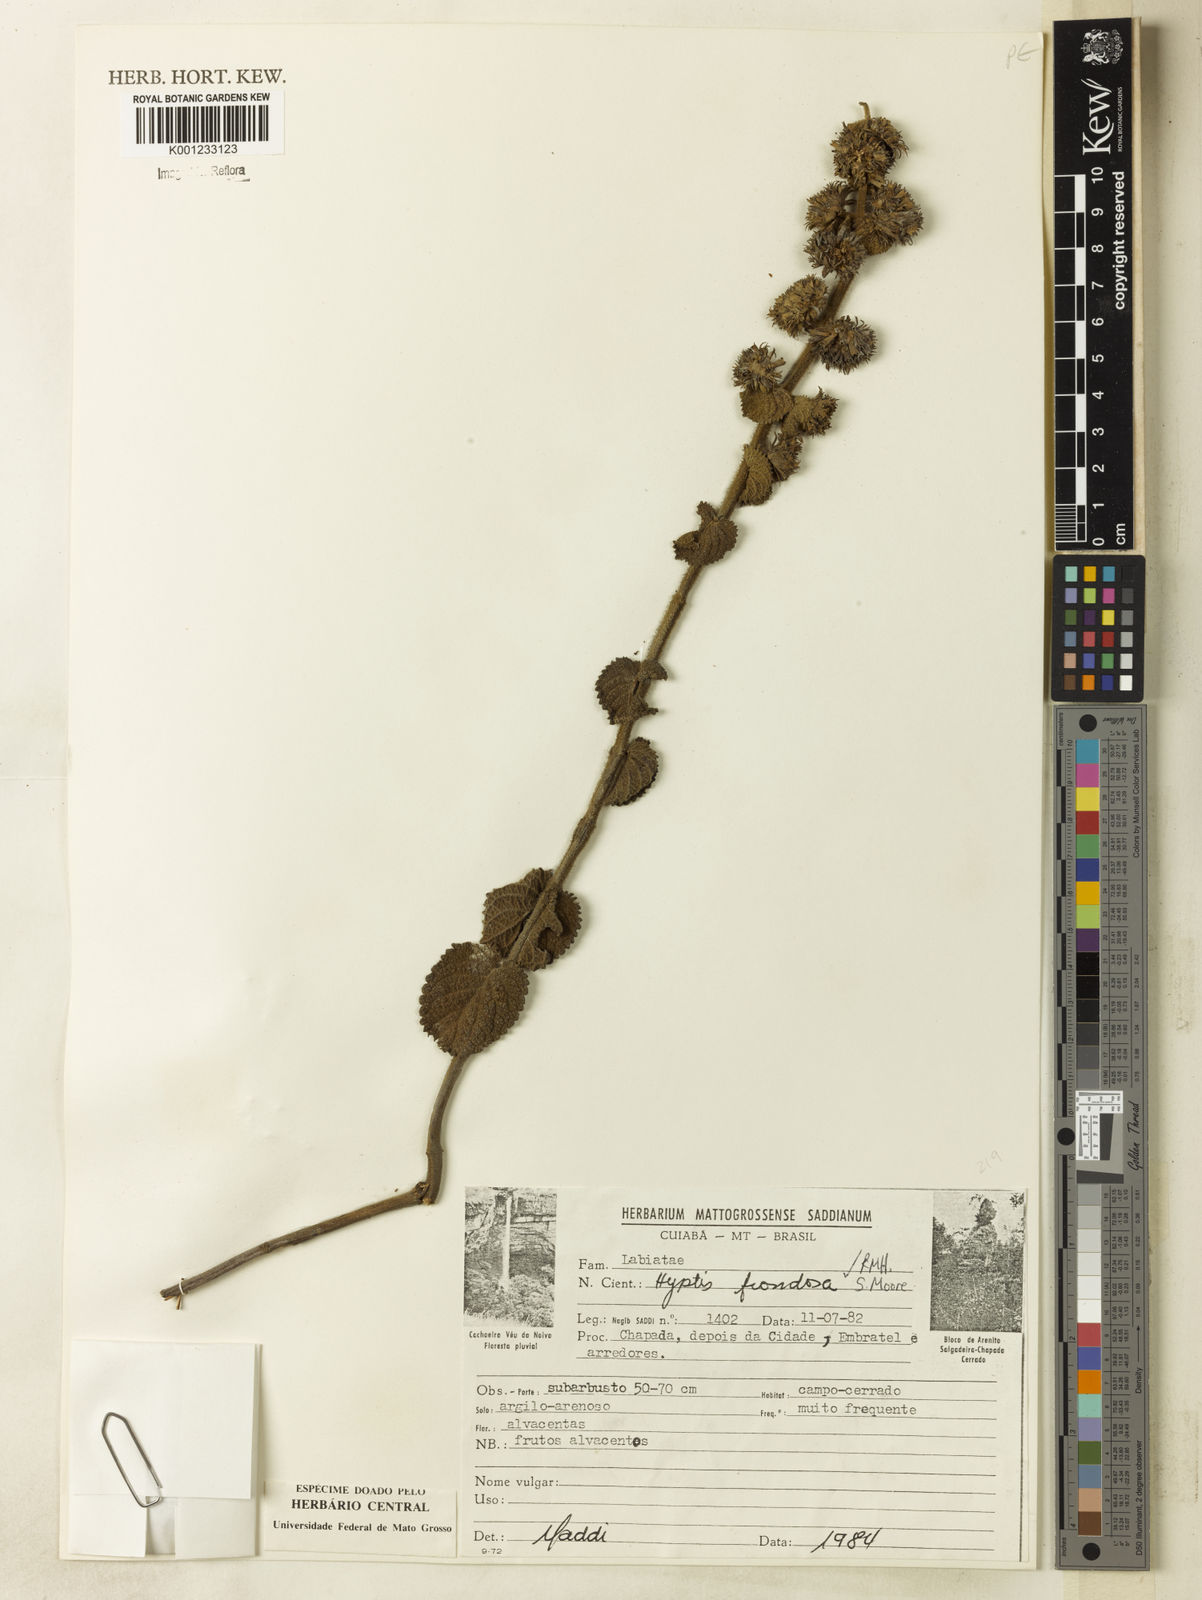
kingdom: Plantae
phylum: Tracheophyta
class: Magnoliopsida
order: Lamiales
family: Lamiaceae
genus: Hyptis
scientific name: Hyptis frondosa
